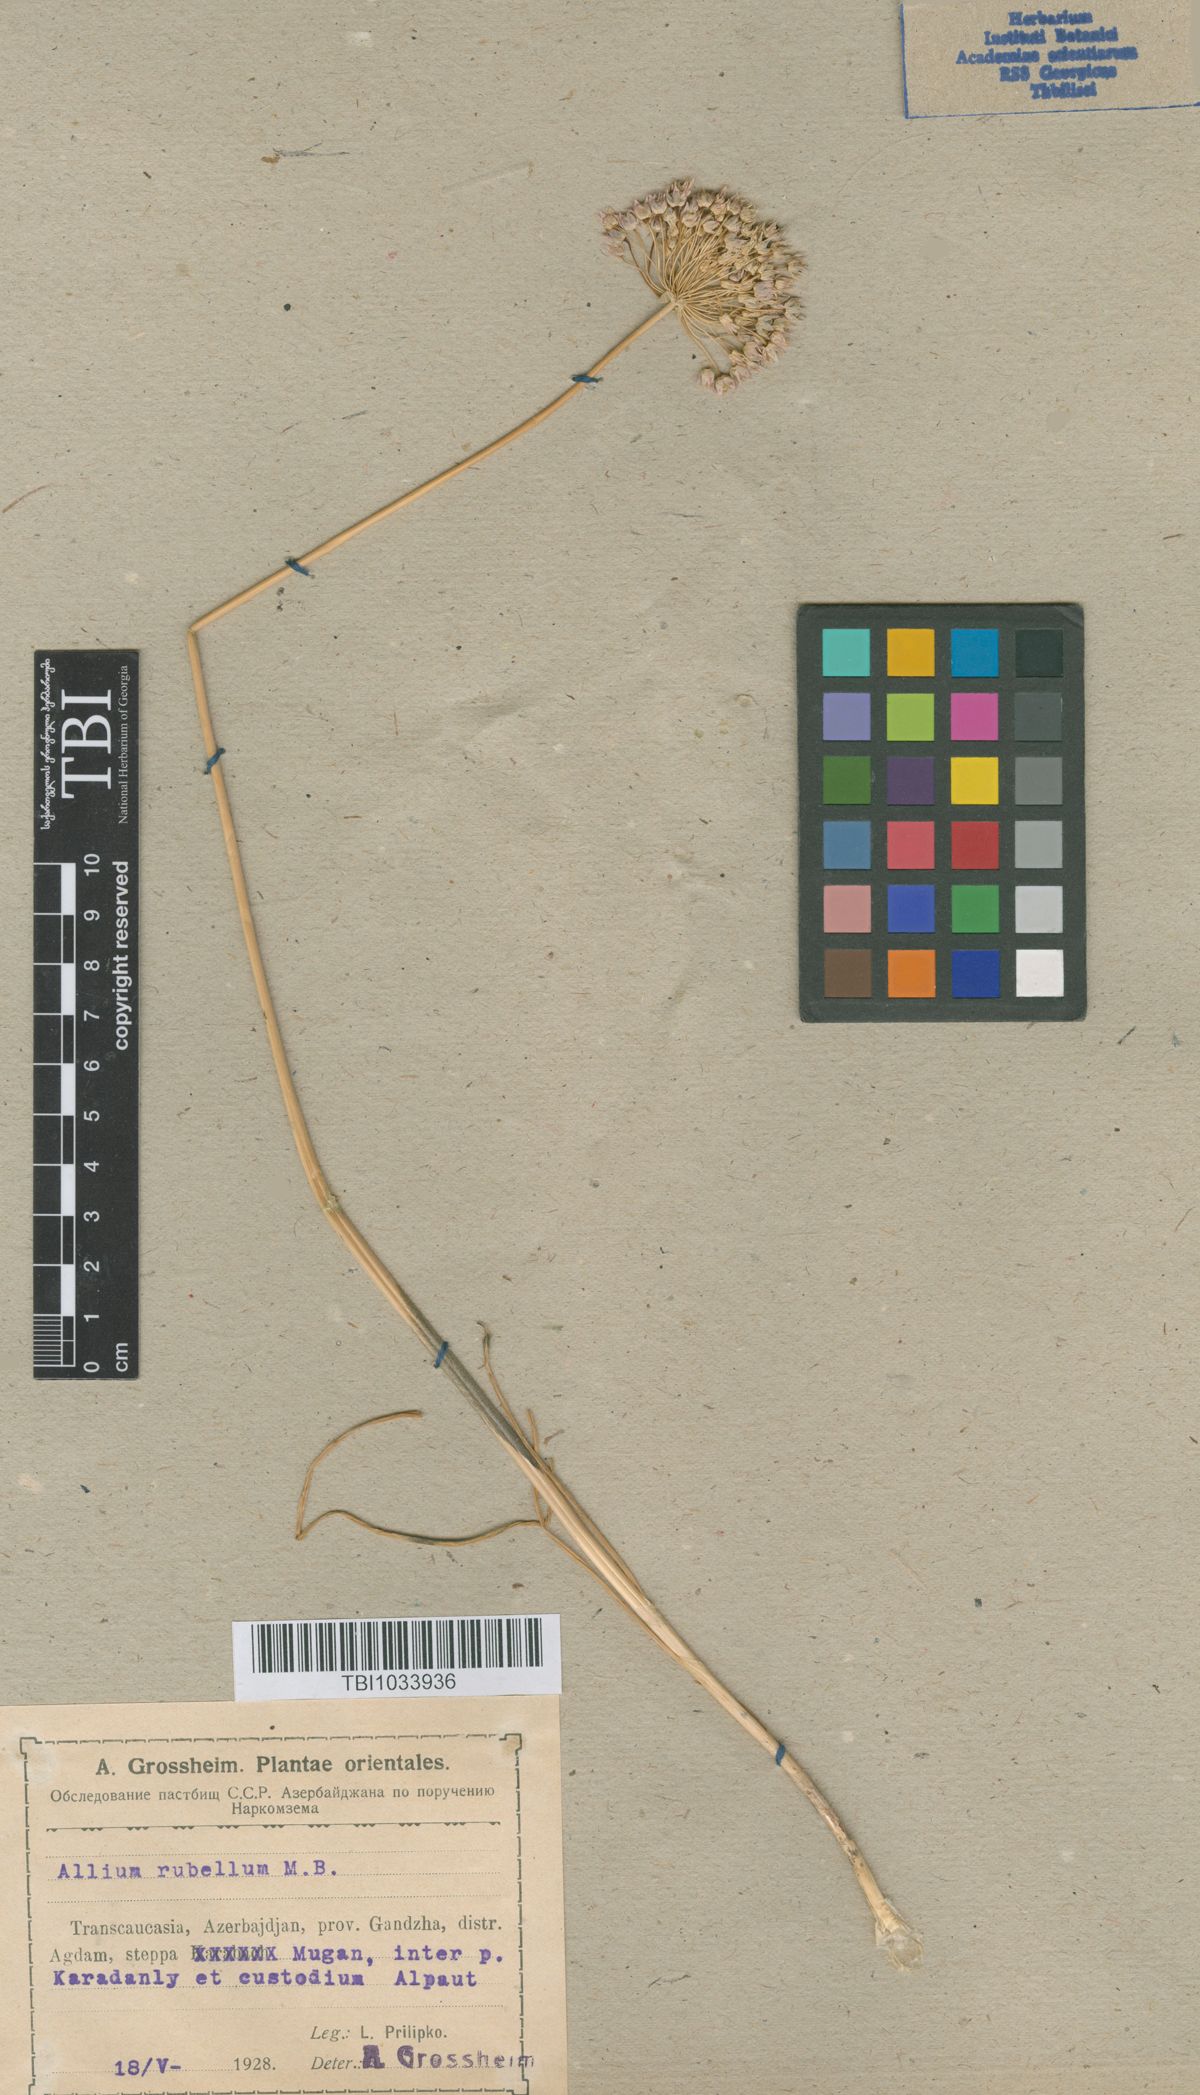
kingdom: Plantae
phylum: Tracheophyta
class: Liliopsida
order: Asparagales
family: Amaryllidaceae
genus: Allium
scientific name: Allium rubellum
